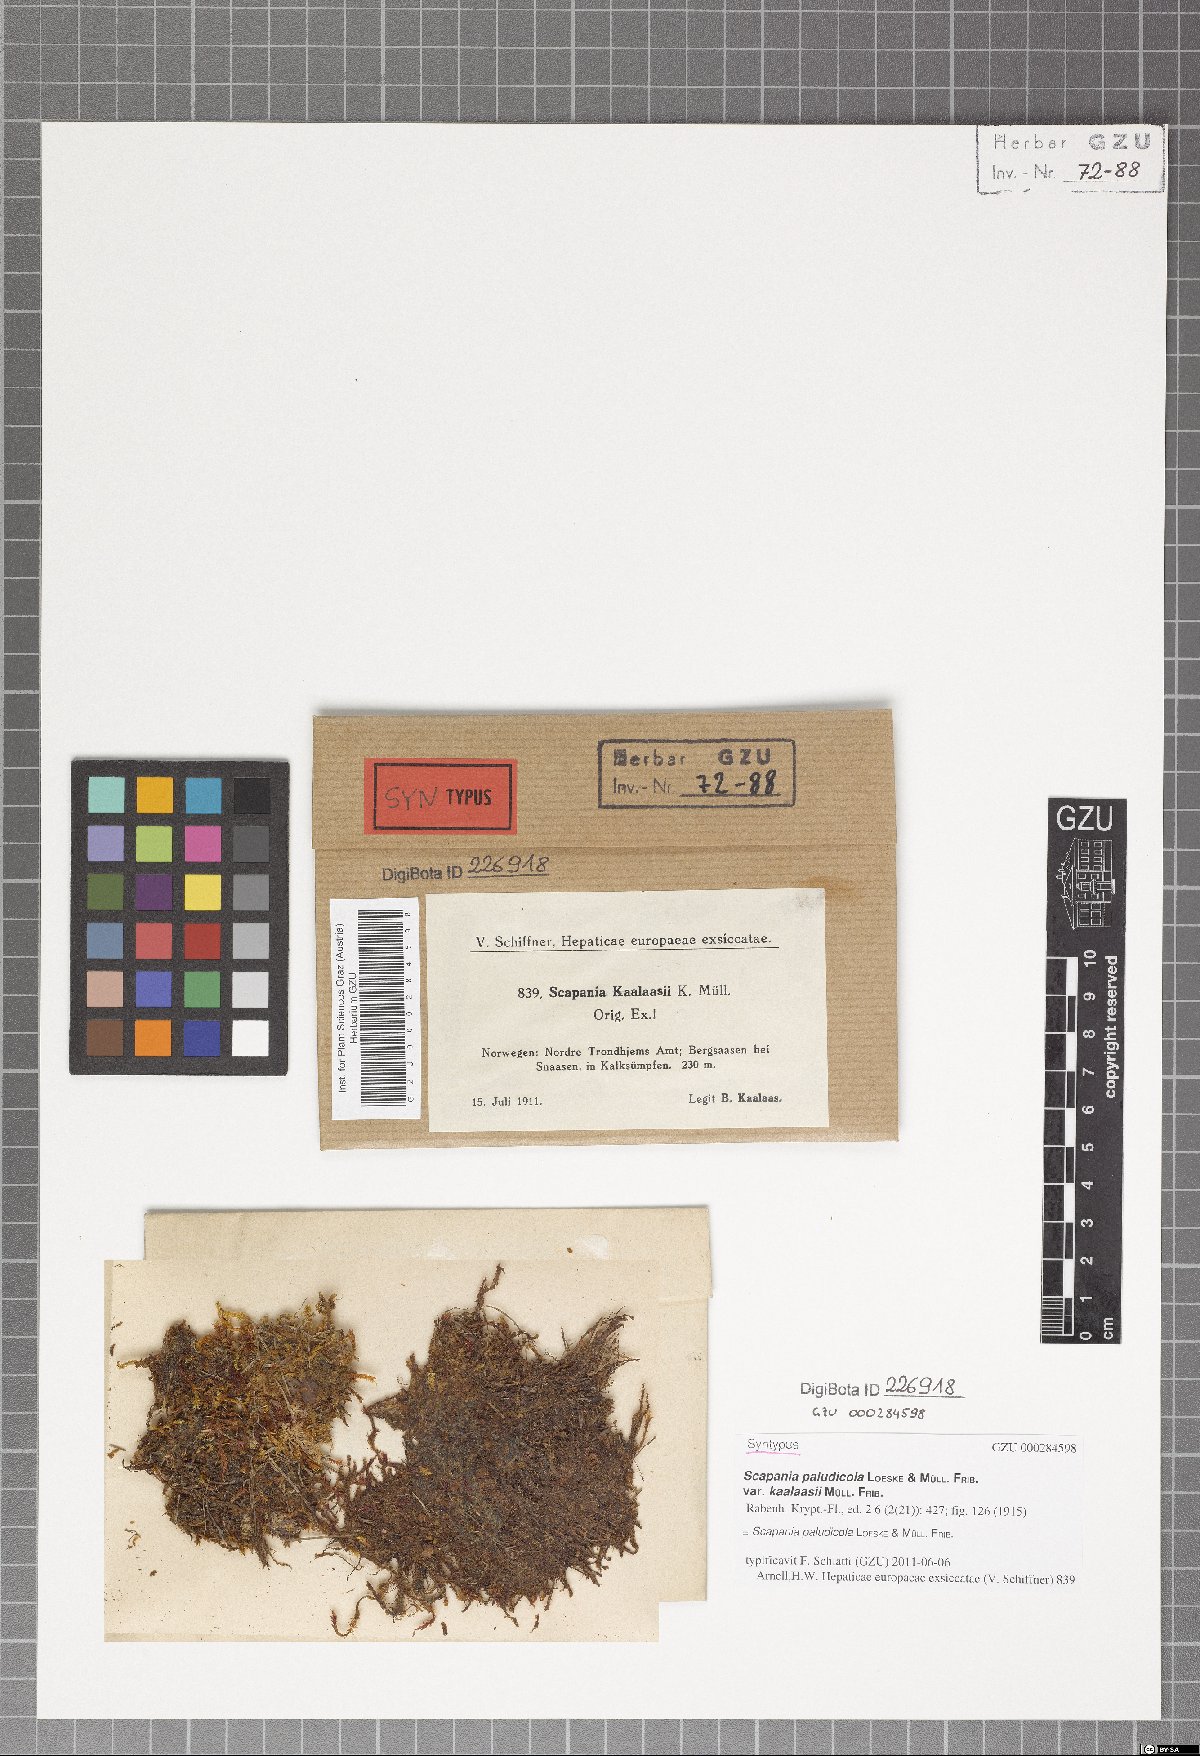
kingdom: Plantae
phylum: Marchantiophyta
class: Jungermanniopsida
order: Jungermanniales
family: Scapaniaceae
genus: Scapania
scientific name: Scapania paludicola
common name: Bog earwort
